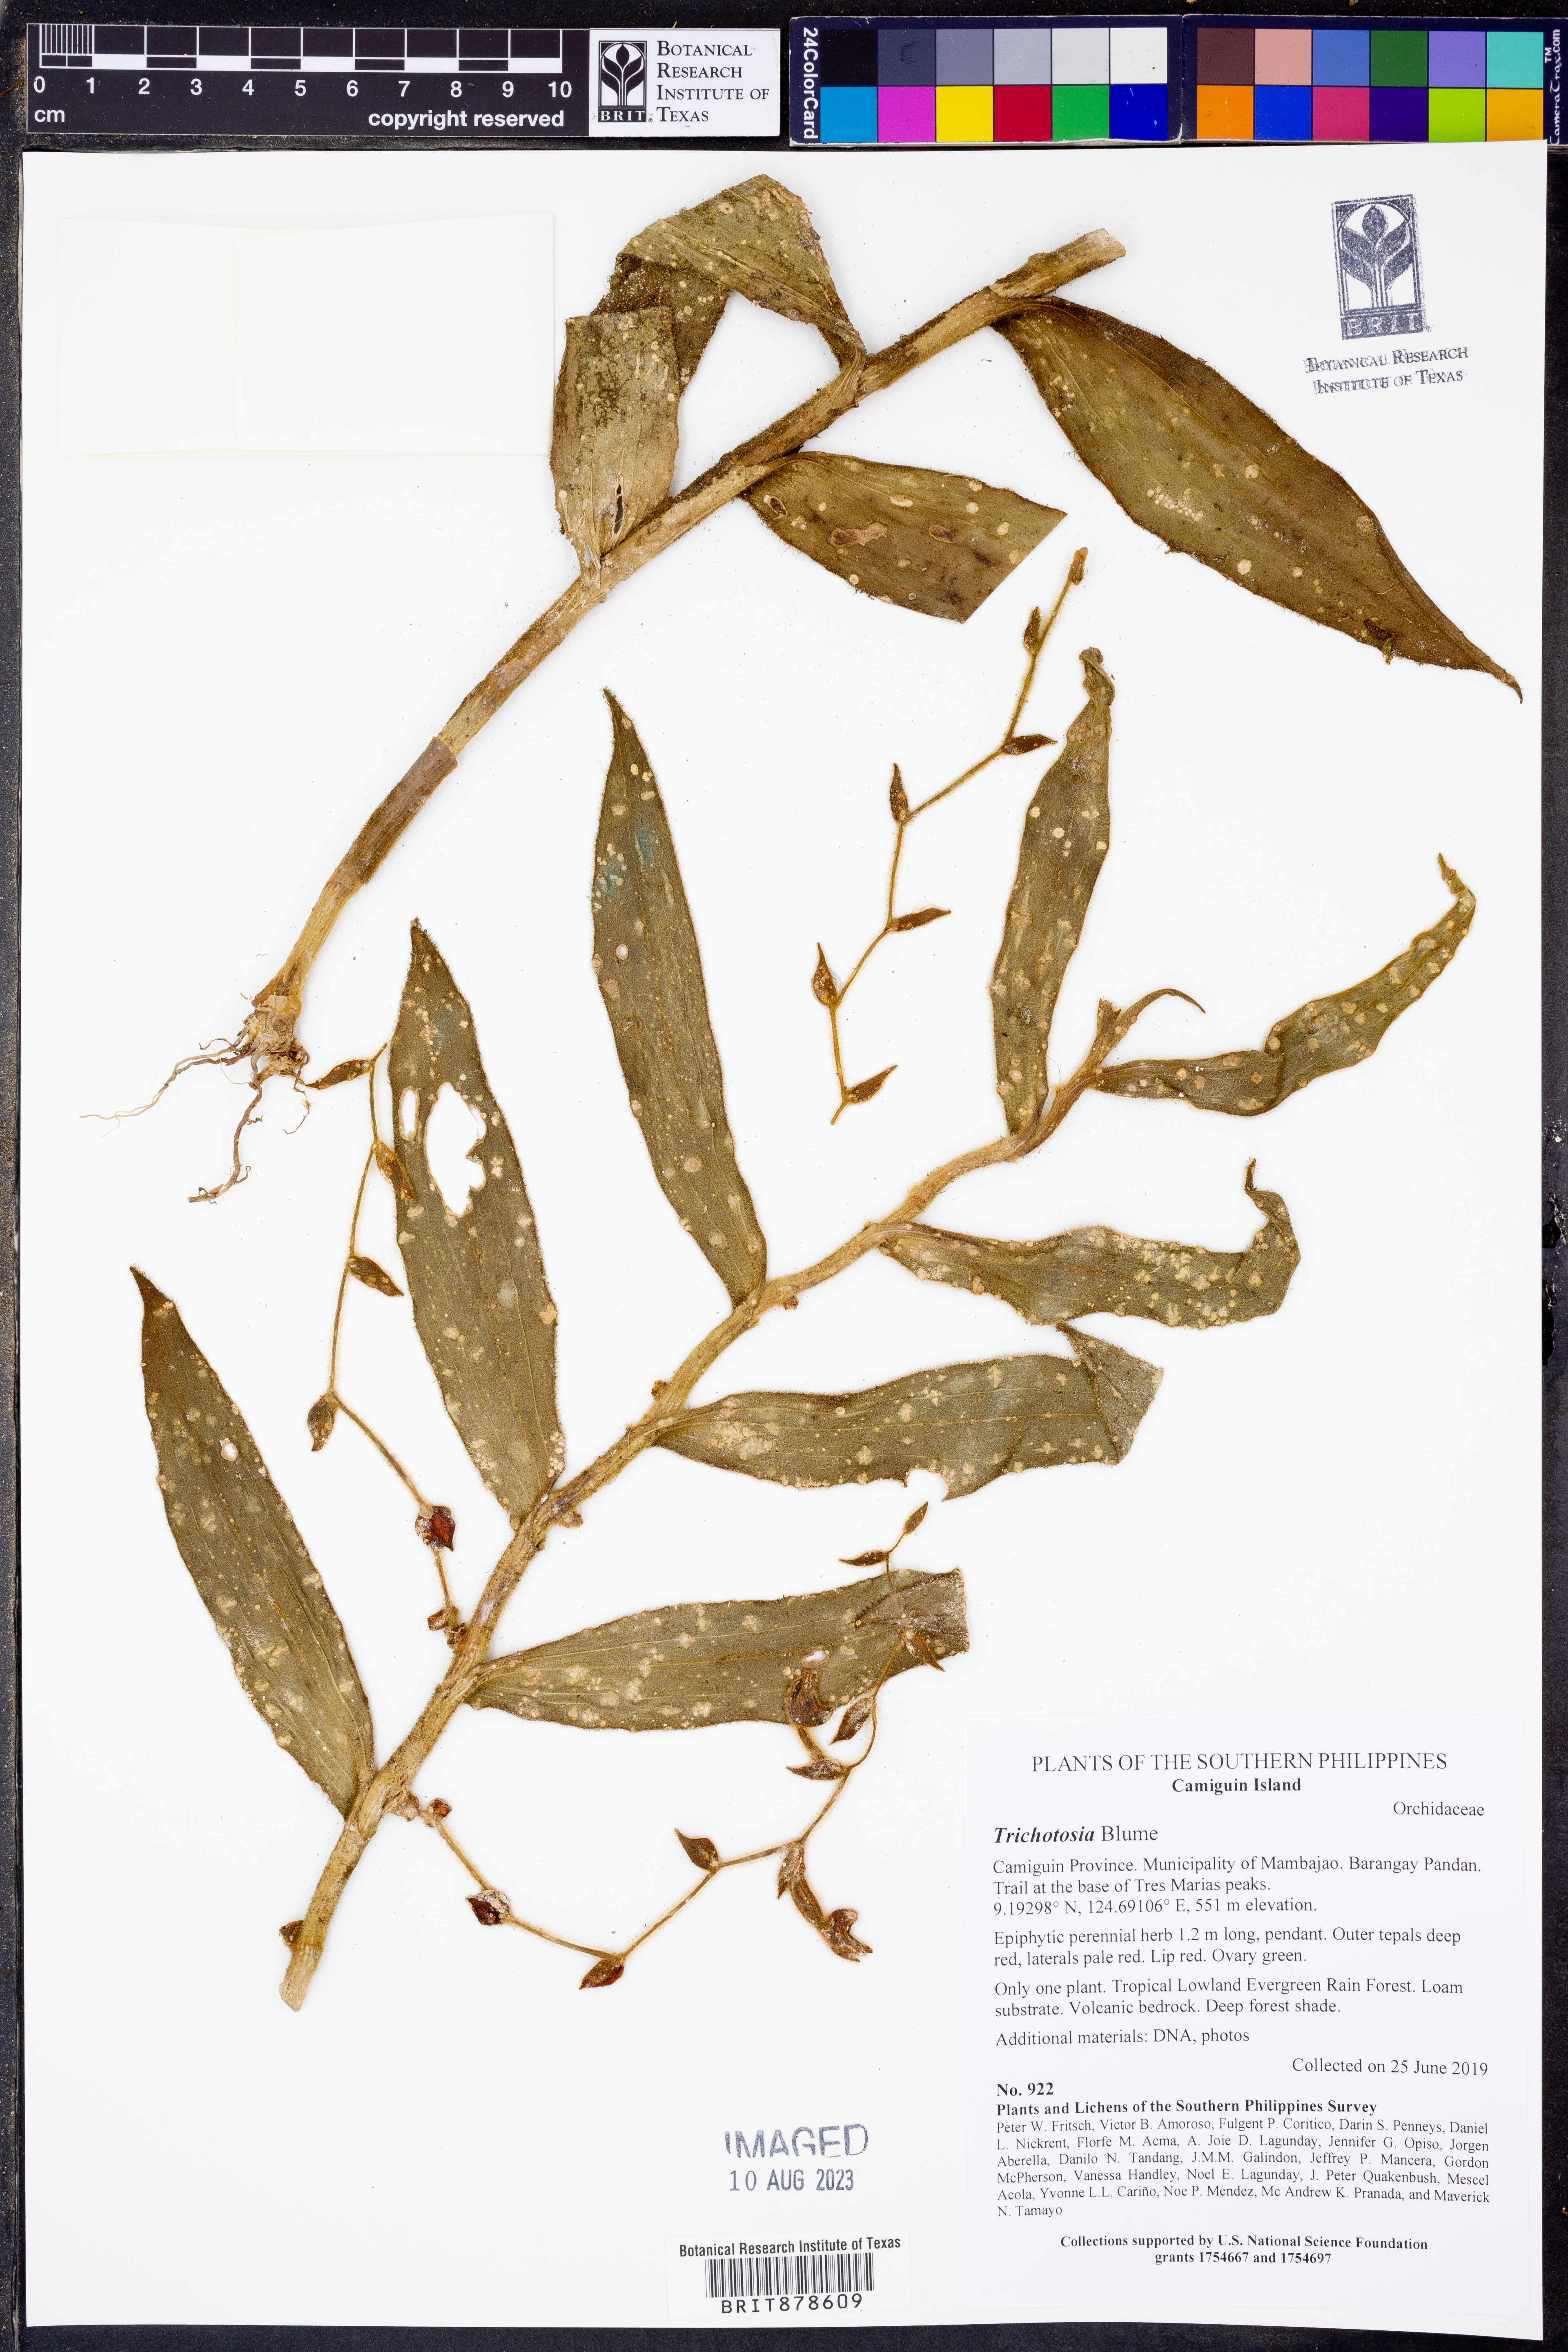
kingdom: Plantae
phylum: Tracheophyta
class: Liliopsida
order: Asparagales
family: Orchidaceae
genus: Trichotosia
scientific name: Trichotosia
